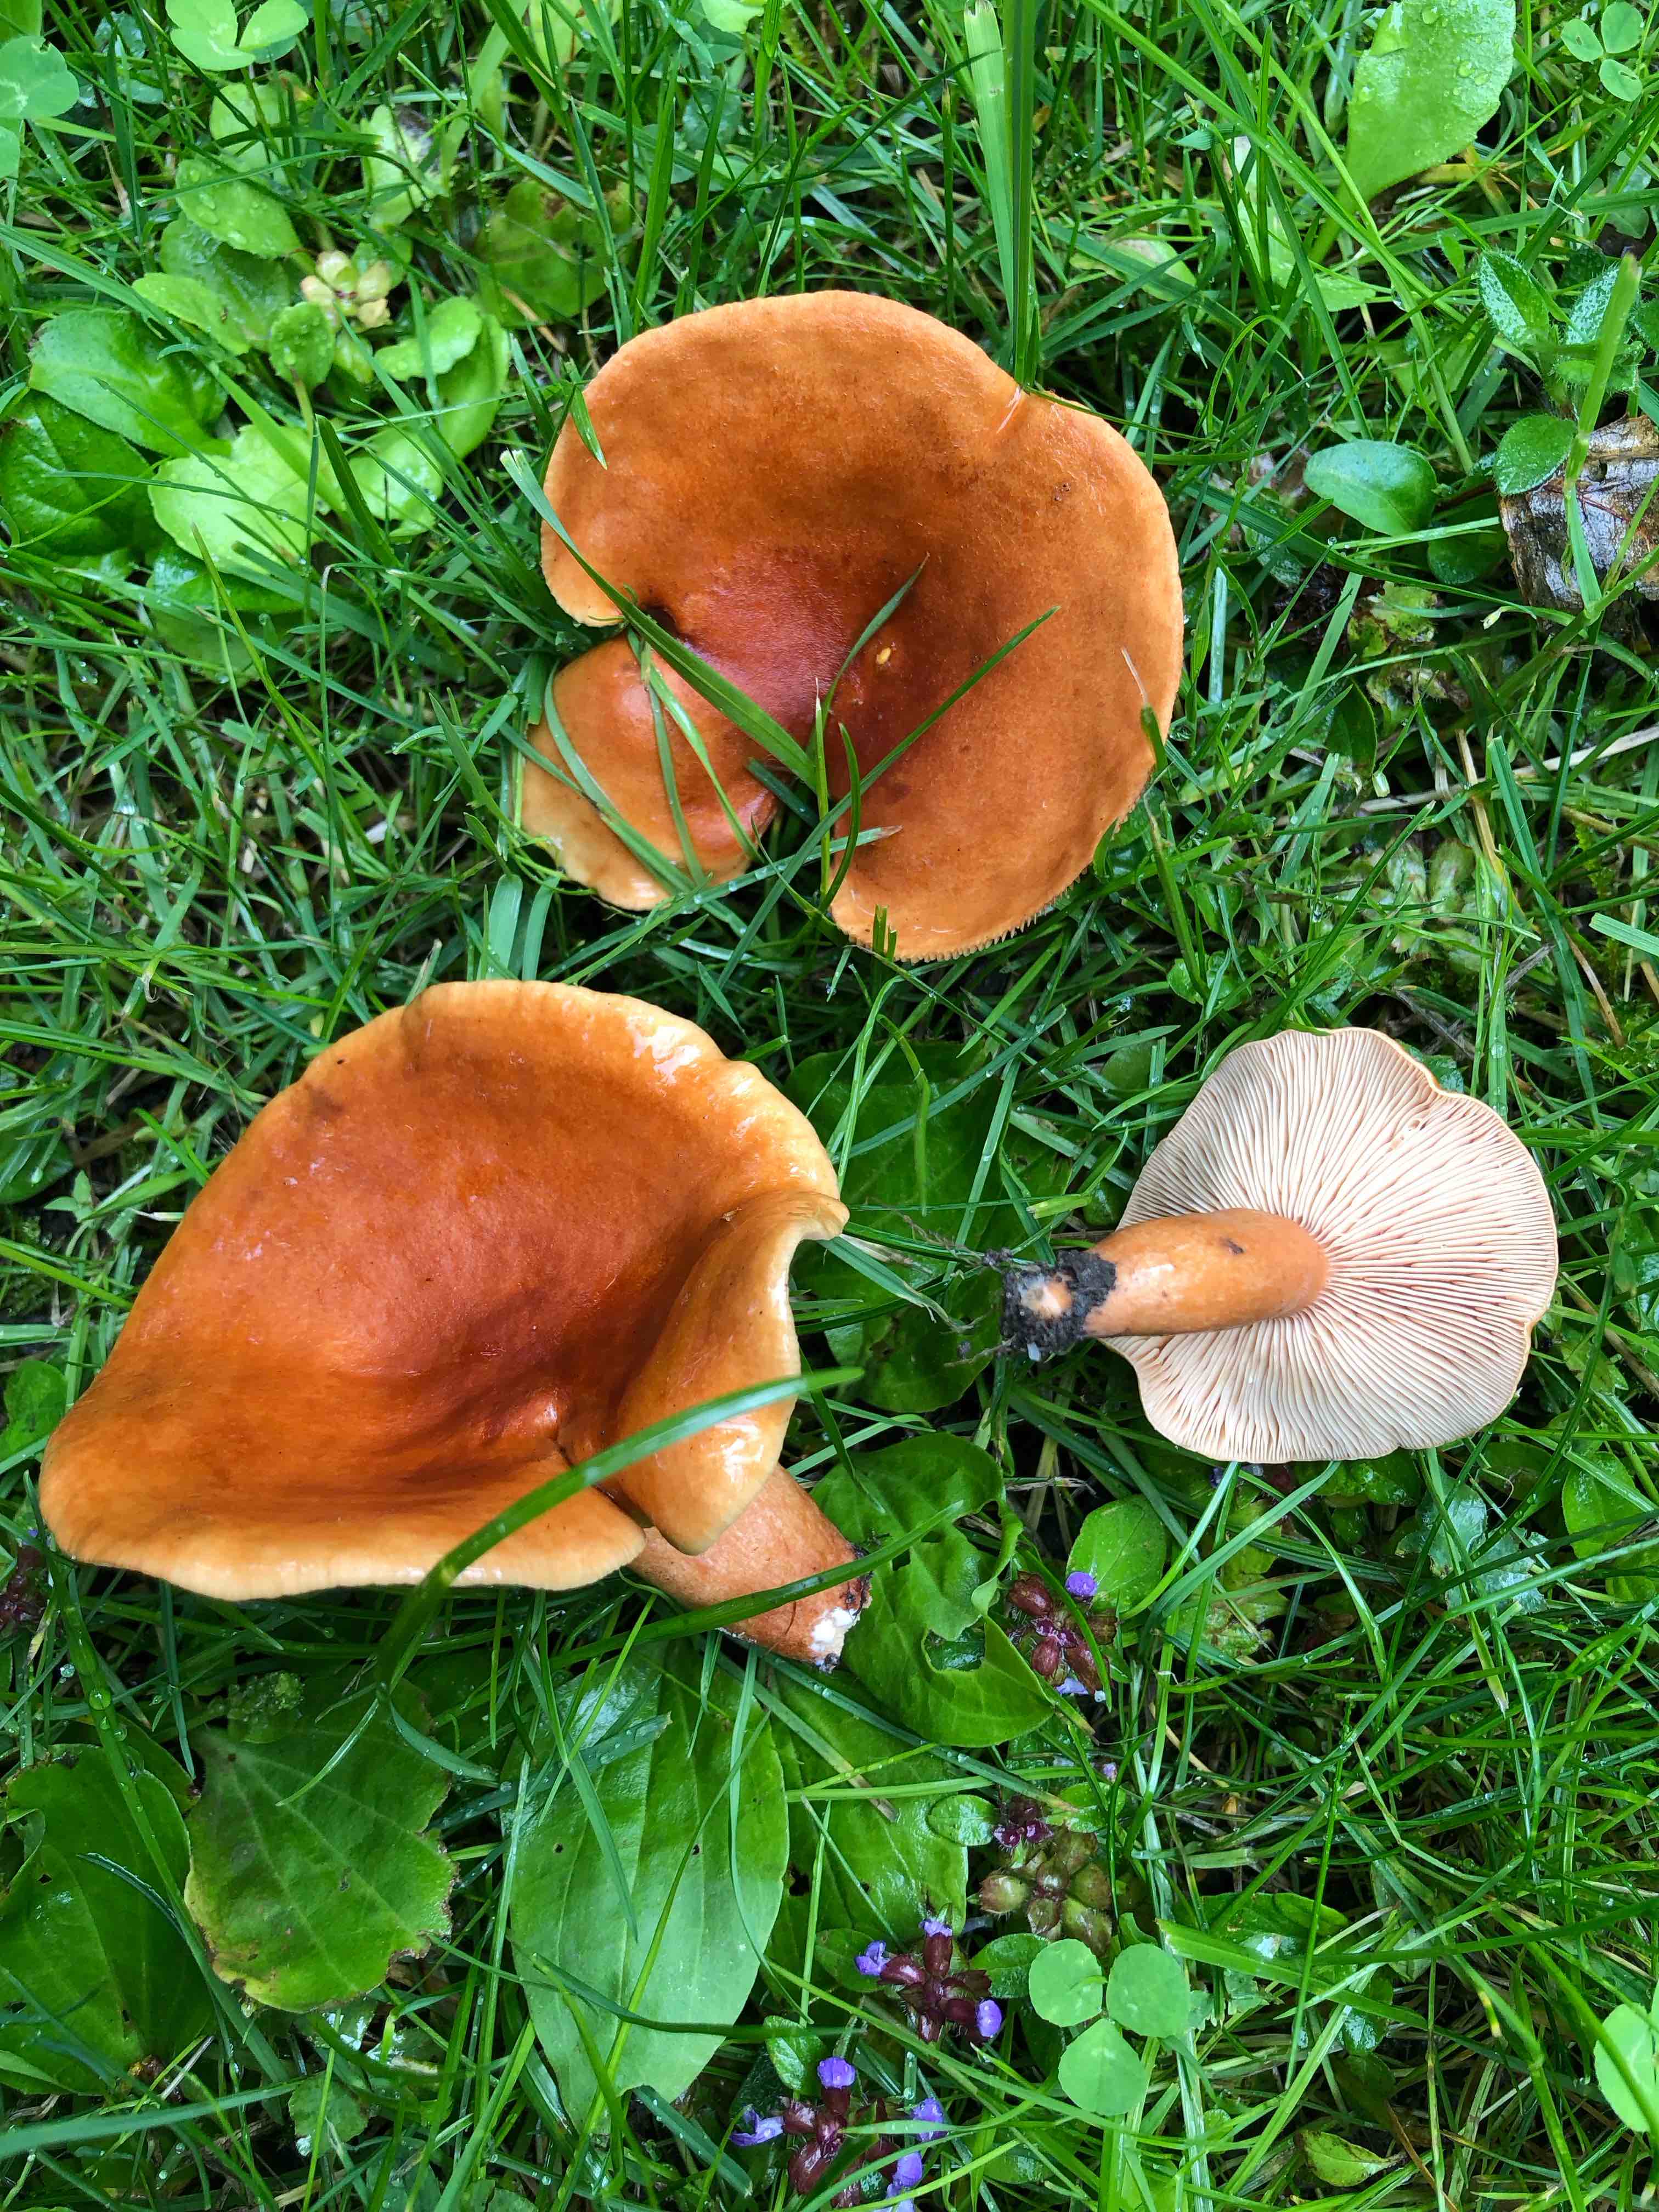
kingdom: Fungi
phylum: Basidiomycota
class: Agaricomycetes
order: Russulales
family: Russulaceae
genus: Lactarius
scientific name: Lactarius fulvissimus
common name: ræve-mælkehat
